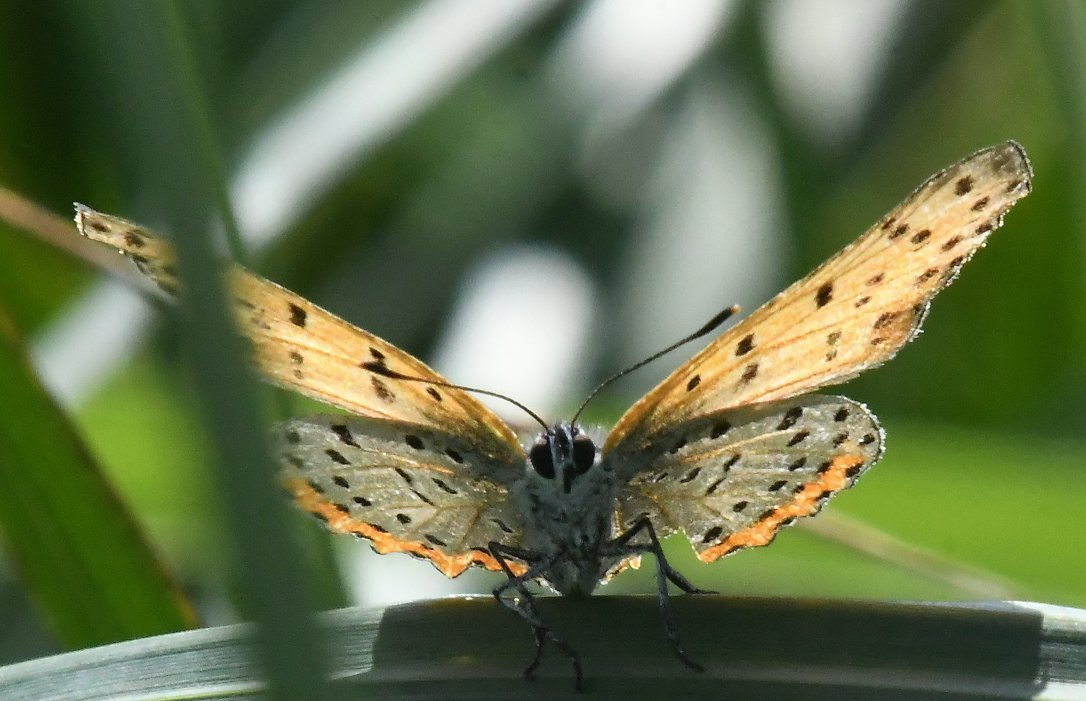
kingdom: Animalia
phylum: Arthropoda
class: Insecta
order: Lepidoptera
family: Sesiidae
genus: Sesia
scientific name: Sesia Lycaena hyllus
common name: Bronze Copper
